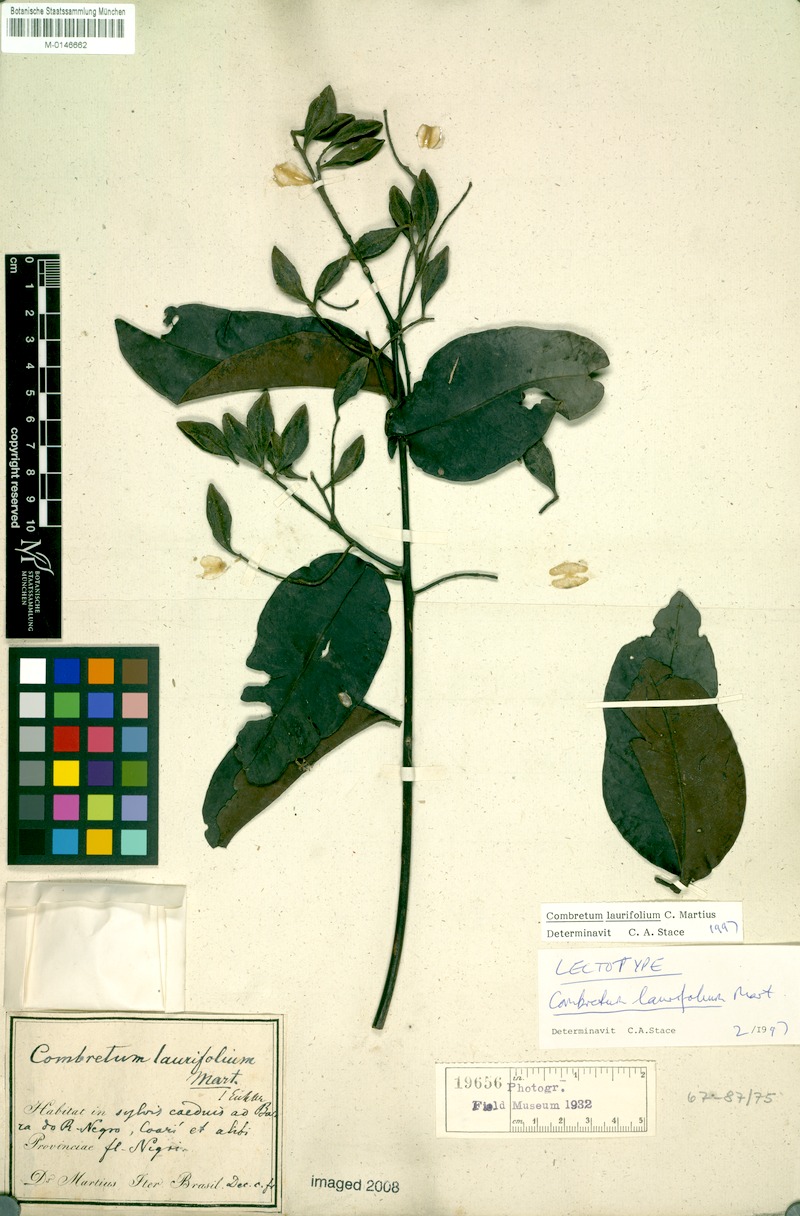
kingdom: Plantae
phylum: Tracheophyta
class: Magnoliopsida
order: Myrtales
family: Combretaceae
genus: Combretum
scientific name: Combretum laurifolium
